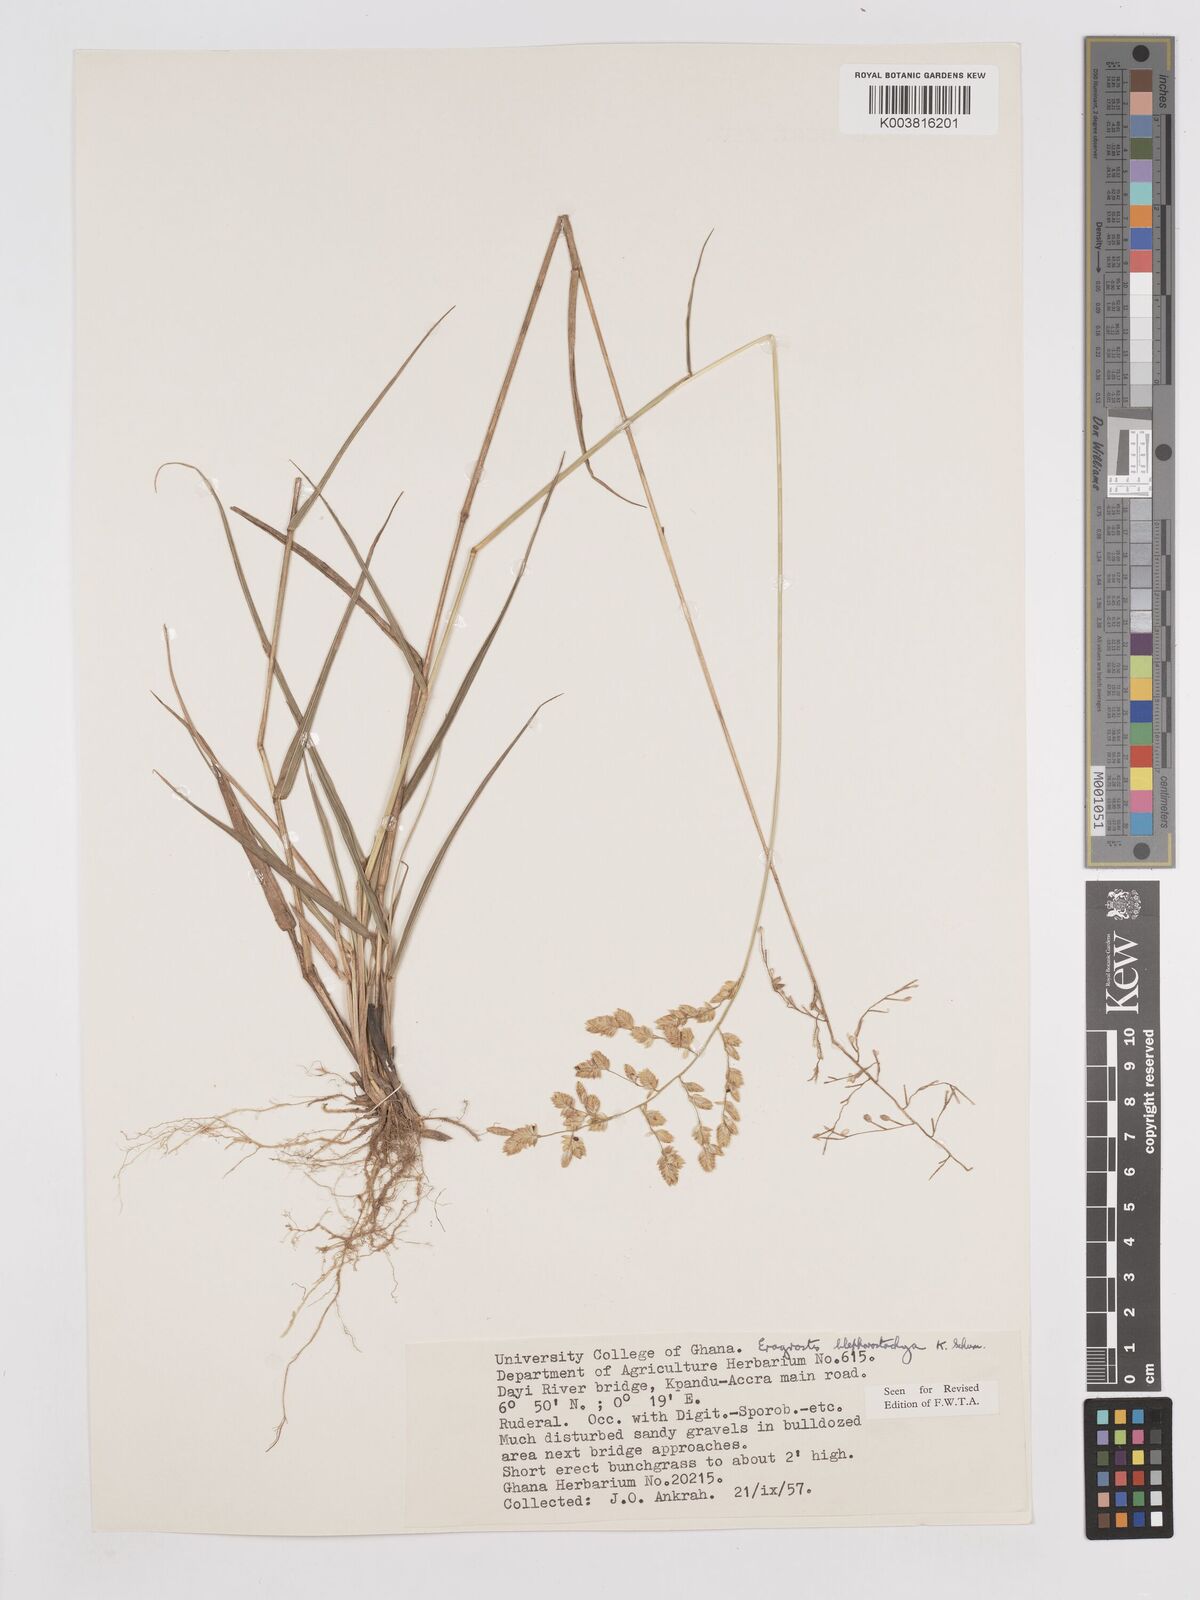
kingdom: Plantae
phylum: Tracheophyta
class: Liliopsida
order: Poales
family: Poaceae
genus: Eragrostis
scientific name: Eragrostis blepharostachya
